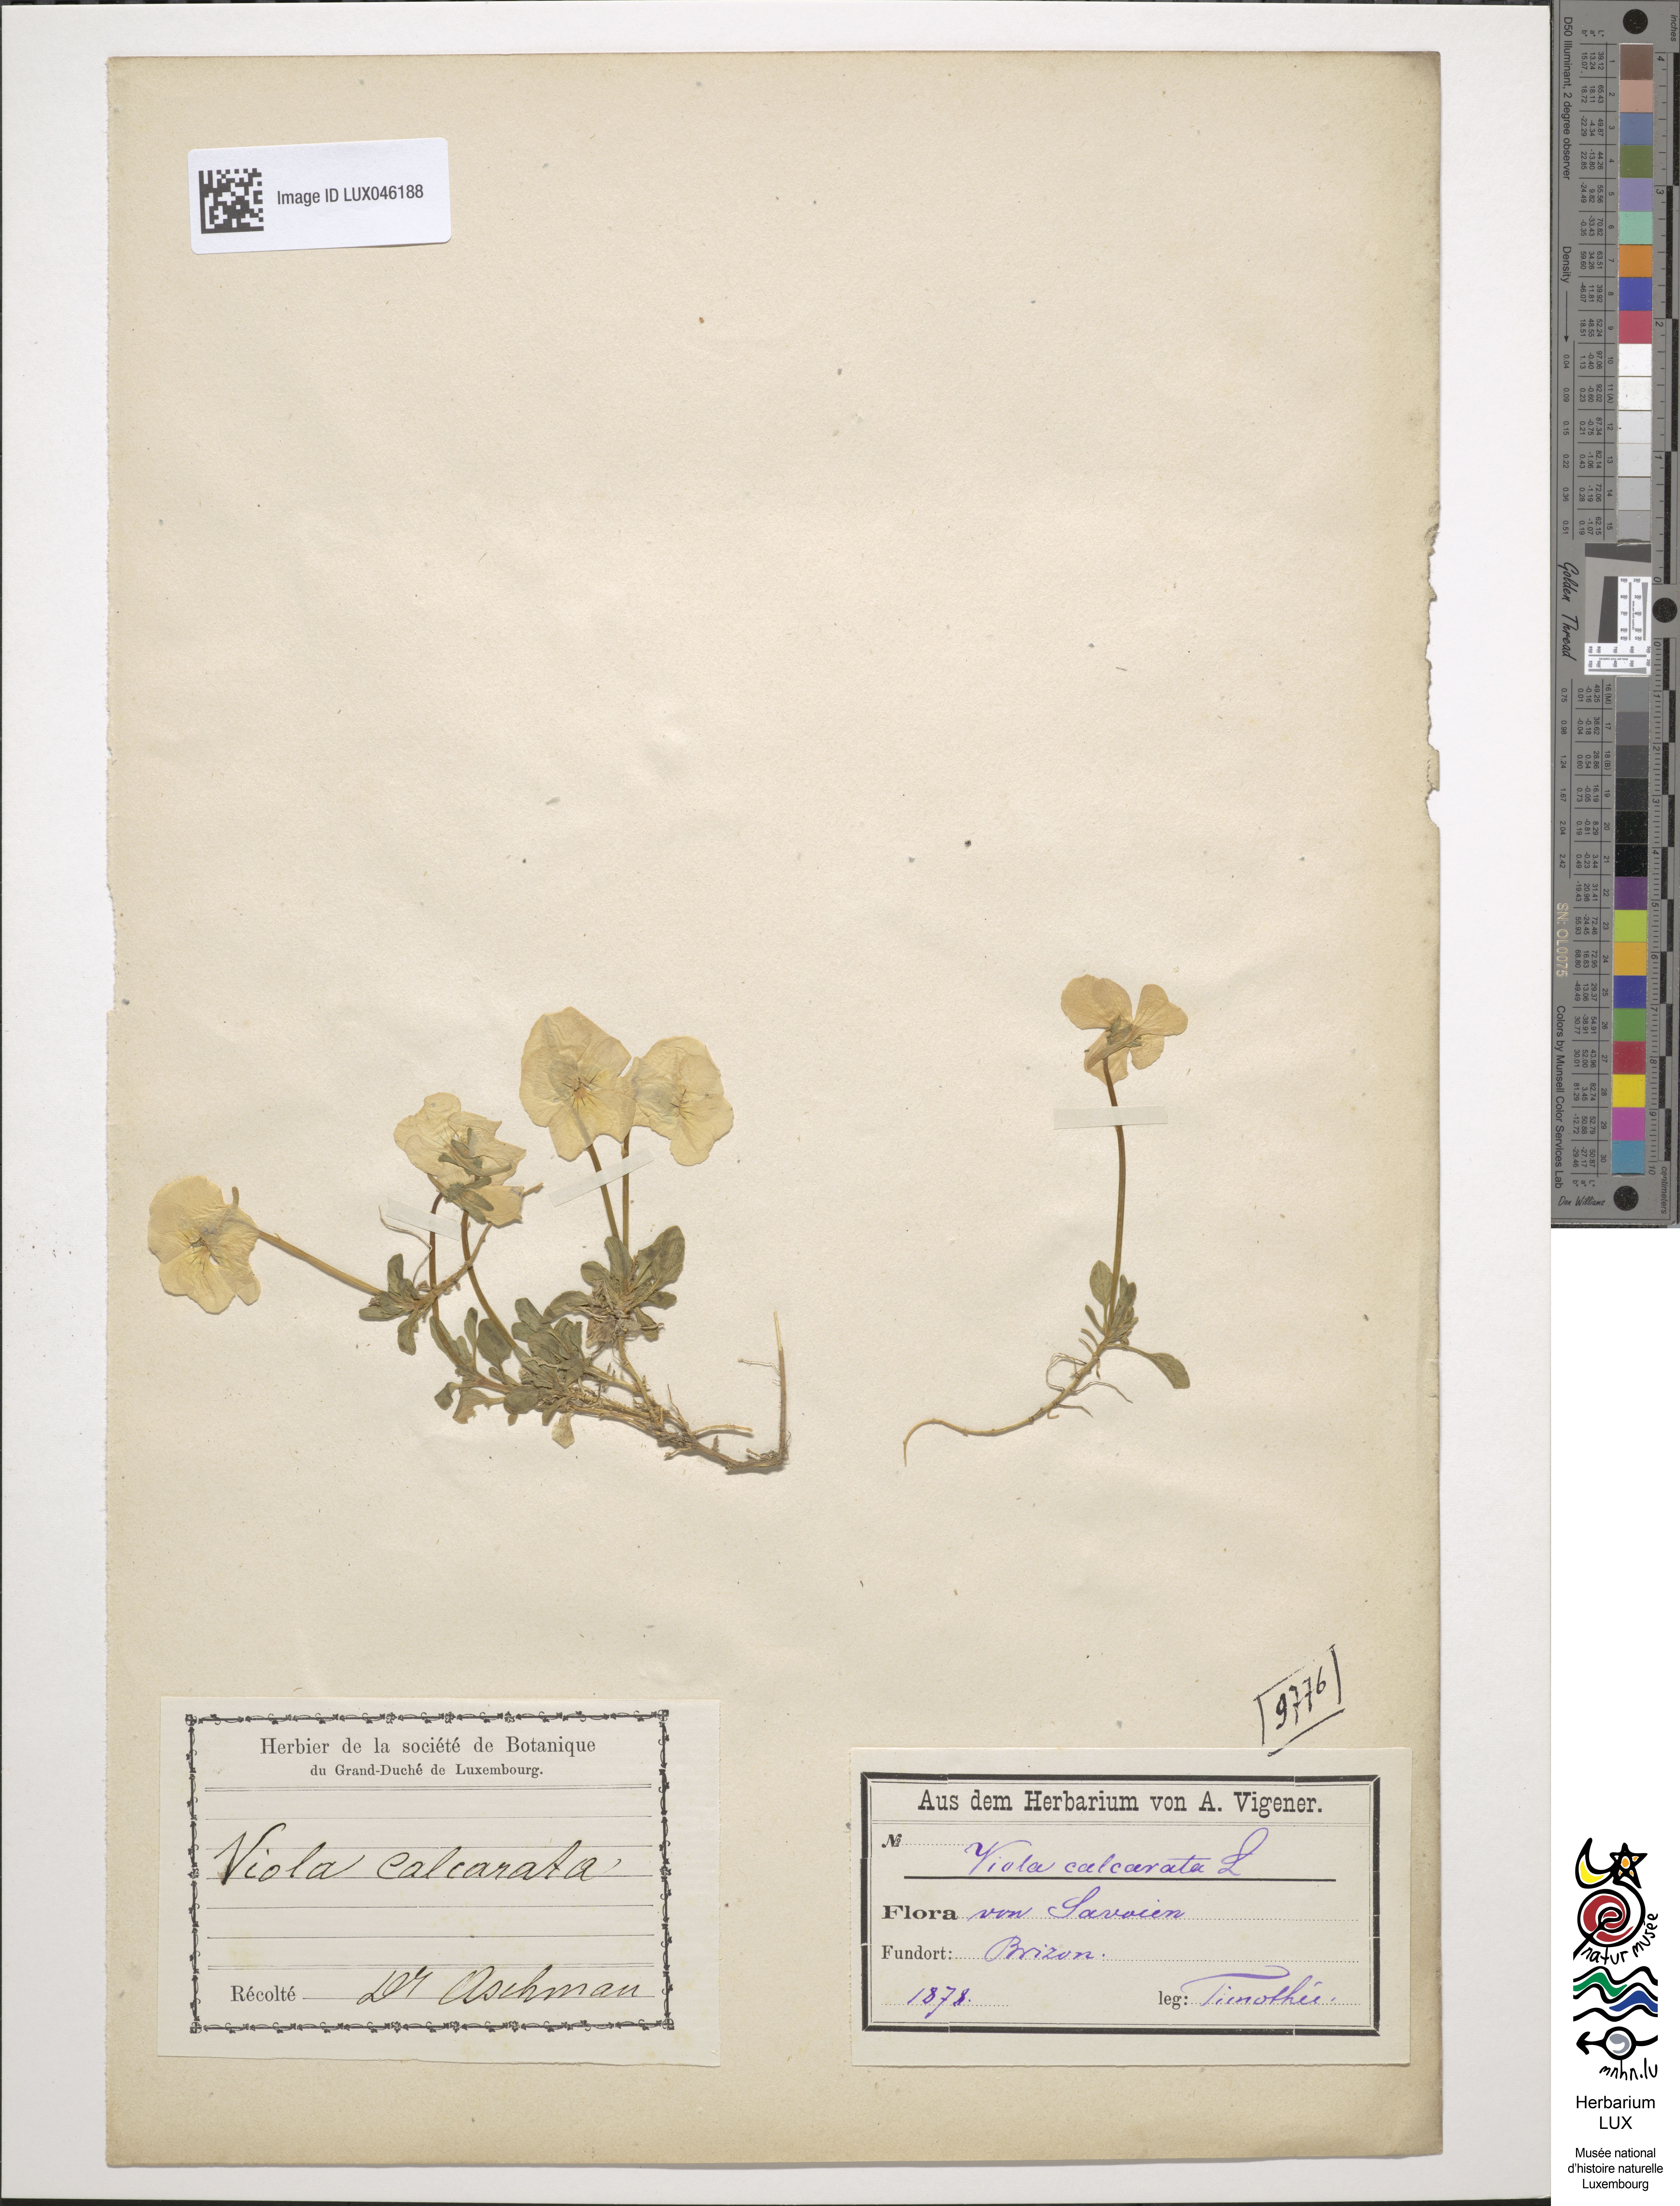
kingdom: Plantae
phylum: Tracheophyta
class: Magnoliopsida
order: Malpighiales
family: Violaceae
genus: Viola
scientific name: Viola calcarata
